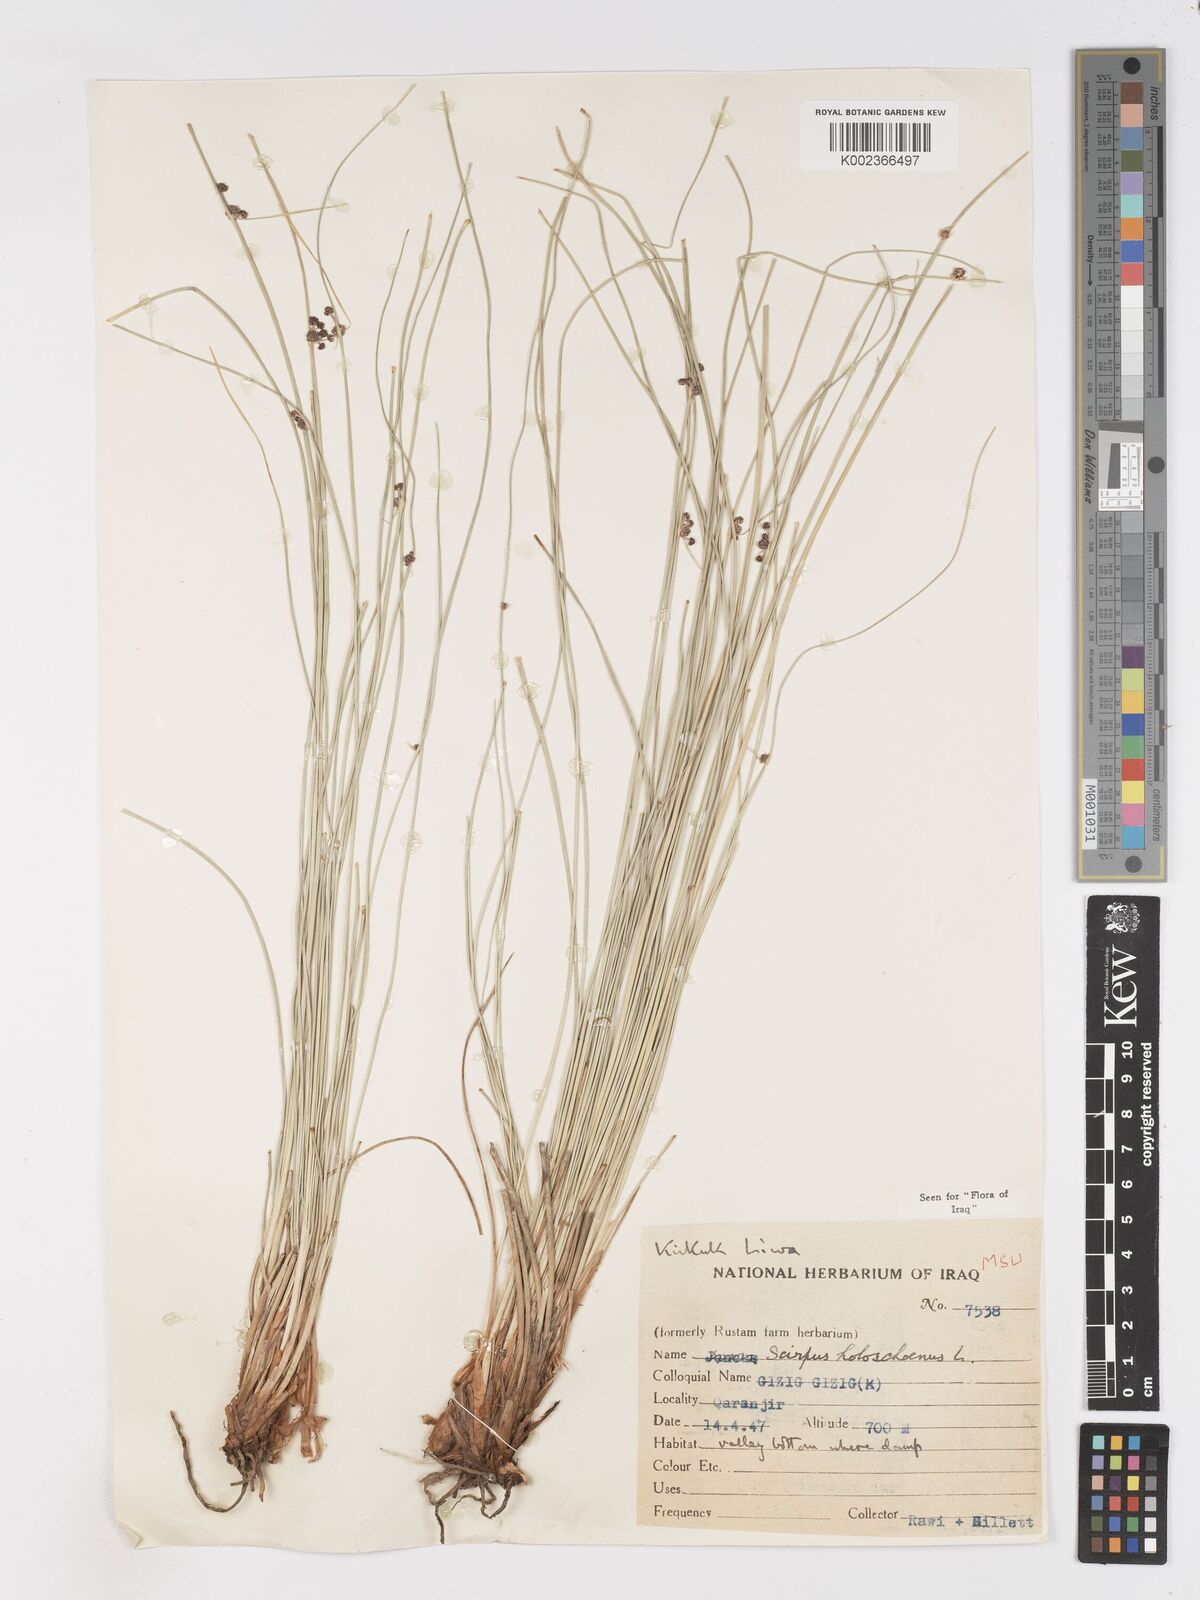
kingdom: Plantae
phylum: Tracheophyta
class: Liliopsida
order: Poales
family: Cyperaceae
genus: Scirpoides
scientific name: Scirpoides holoschoenus
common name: Round-headed club-rush
